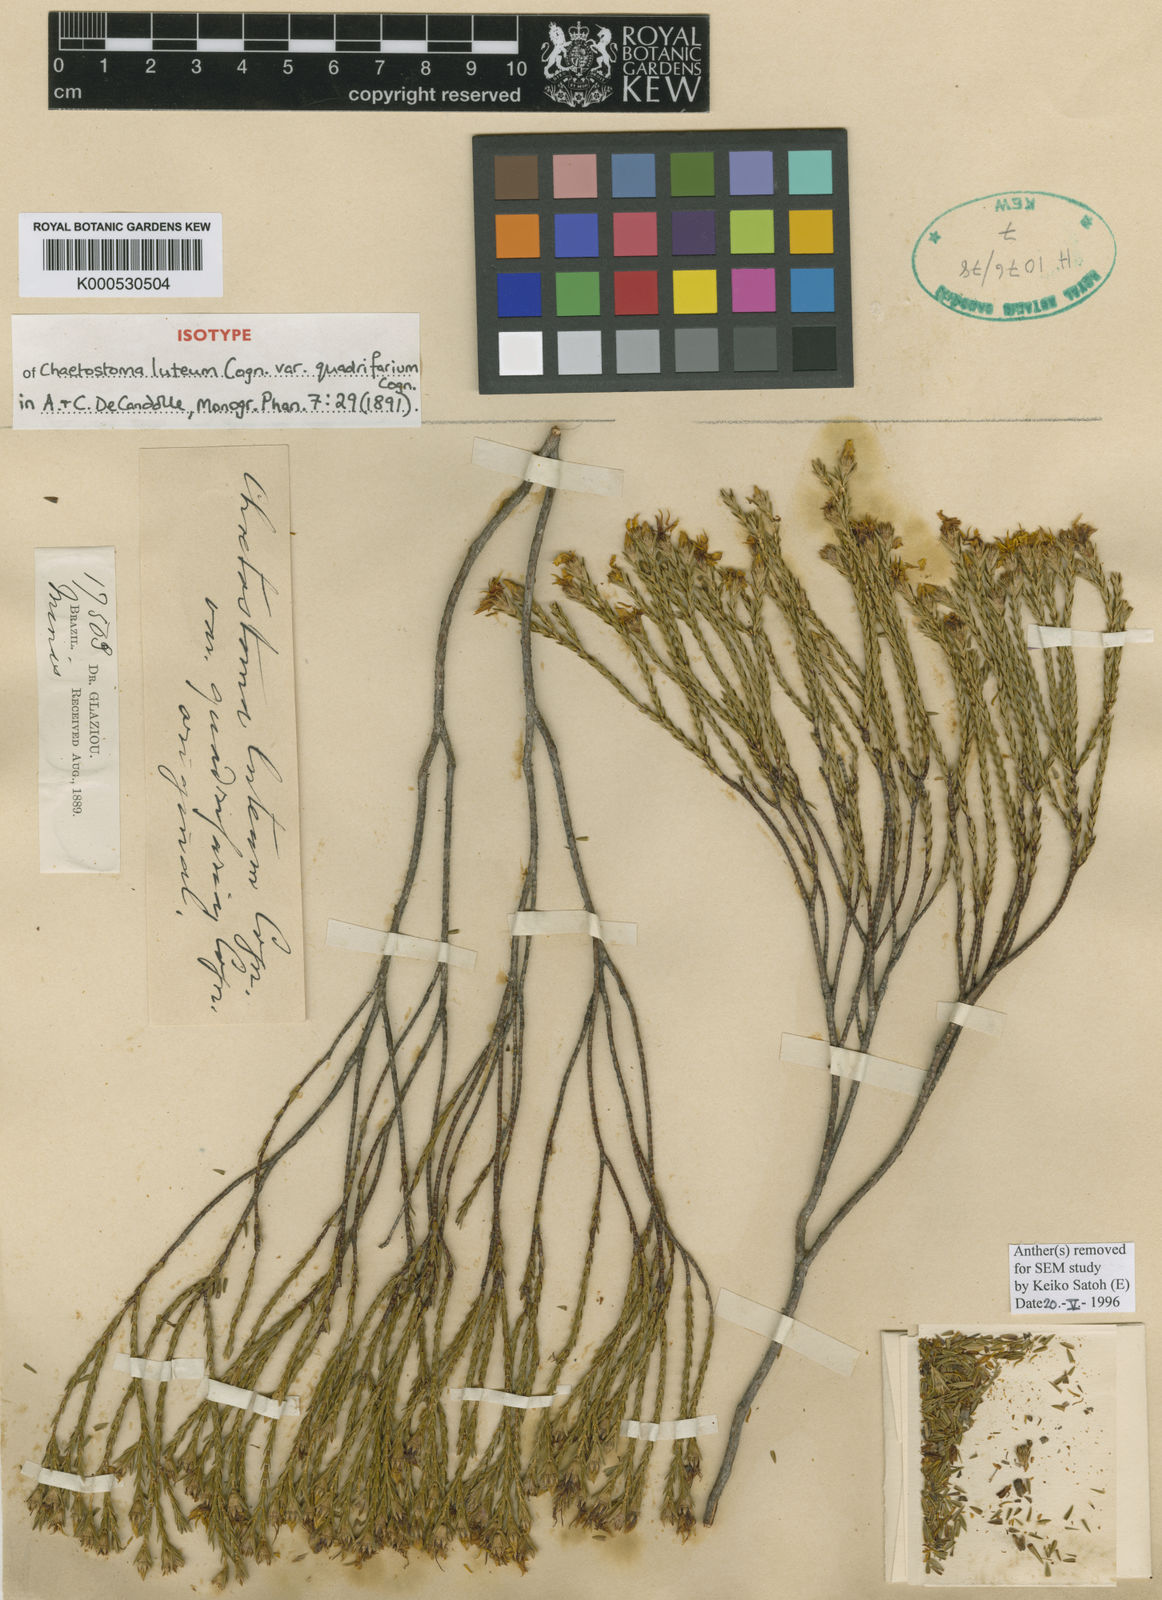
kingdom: Plantae
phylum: Tracheophyta
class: Magnoliopsida
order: Myrtales
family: Melastomataceae
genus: Microlicia
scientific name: Microlicia cupressina
